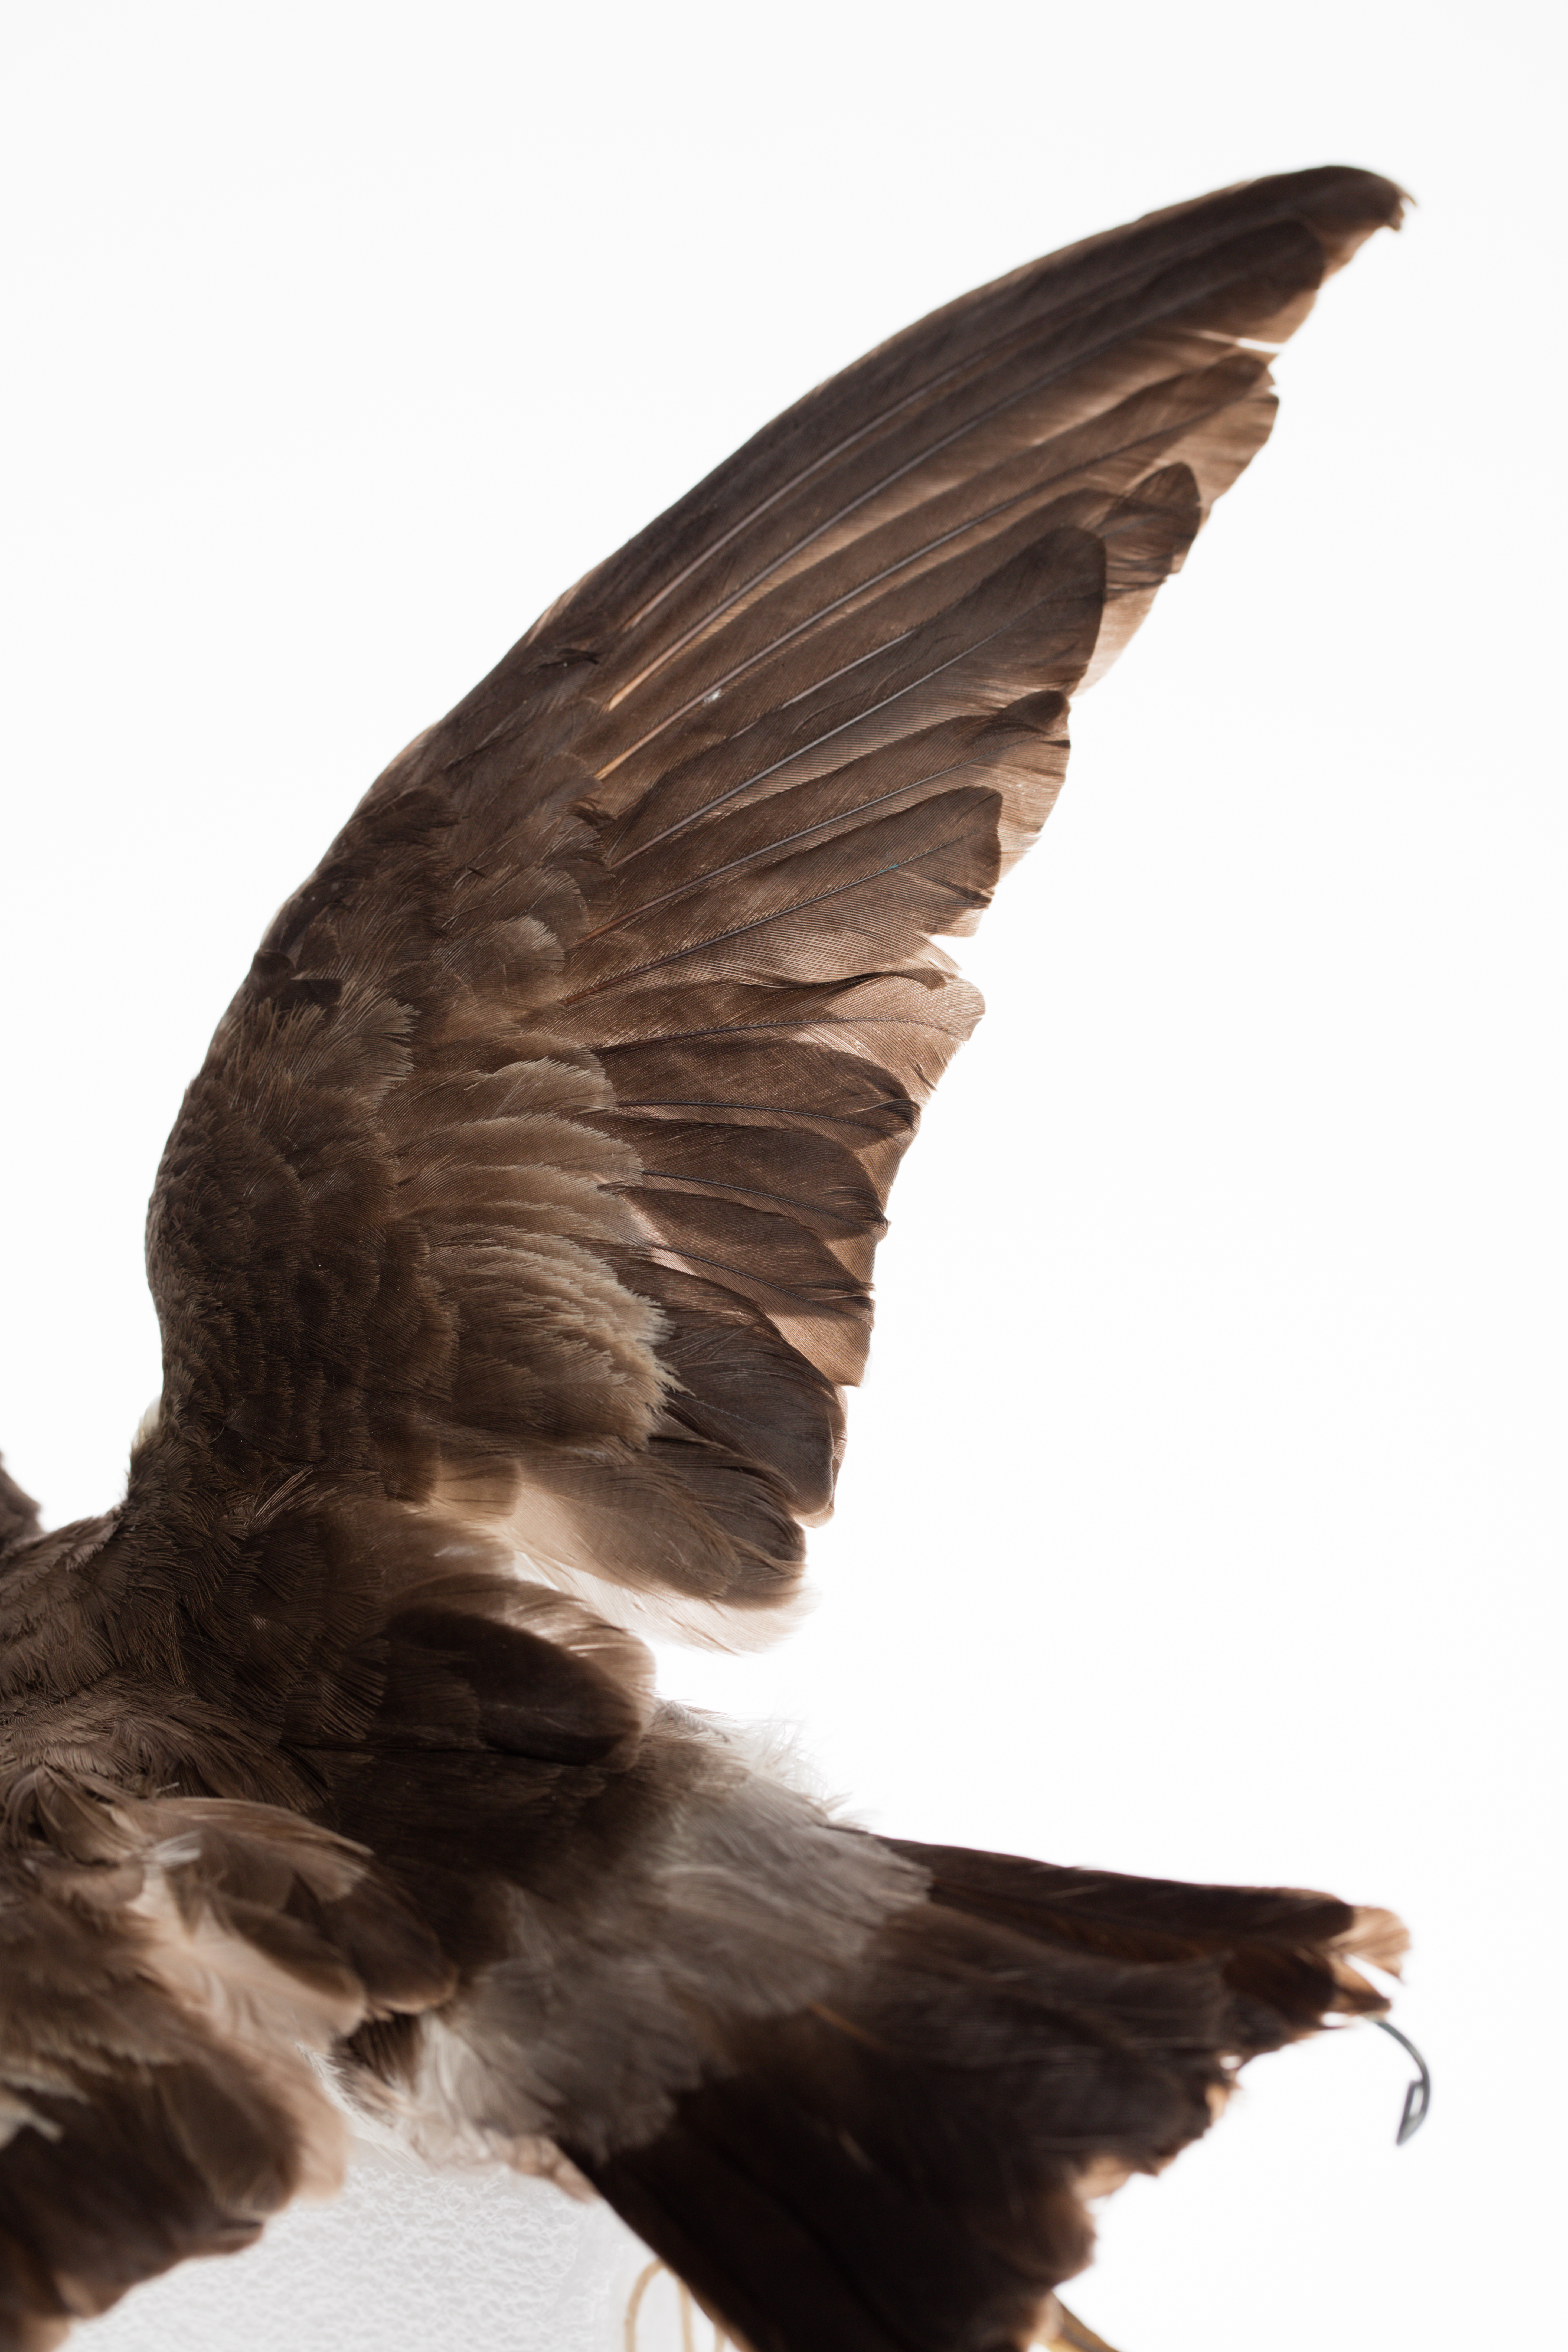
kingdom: Animalia
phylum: Chordata
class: Aves
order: Procellariiformes
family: Hydrobatidae
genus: Pelagodroma
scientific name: Pelagodroma marina
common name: White-faced storm-petrel
